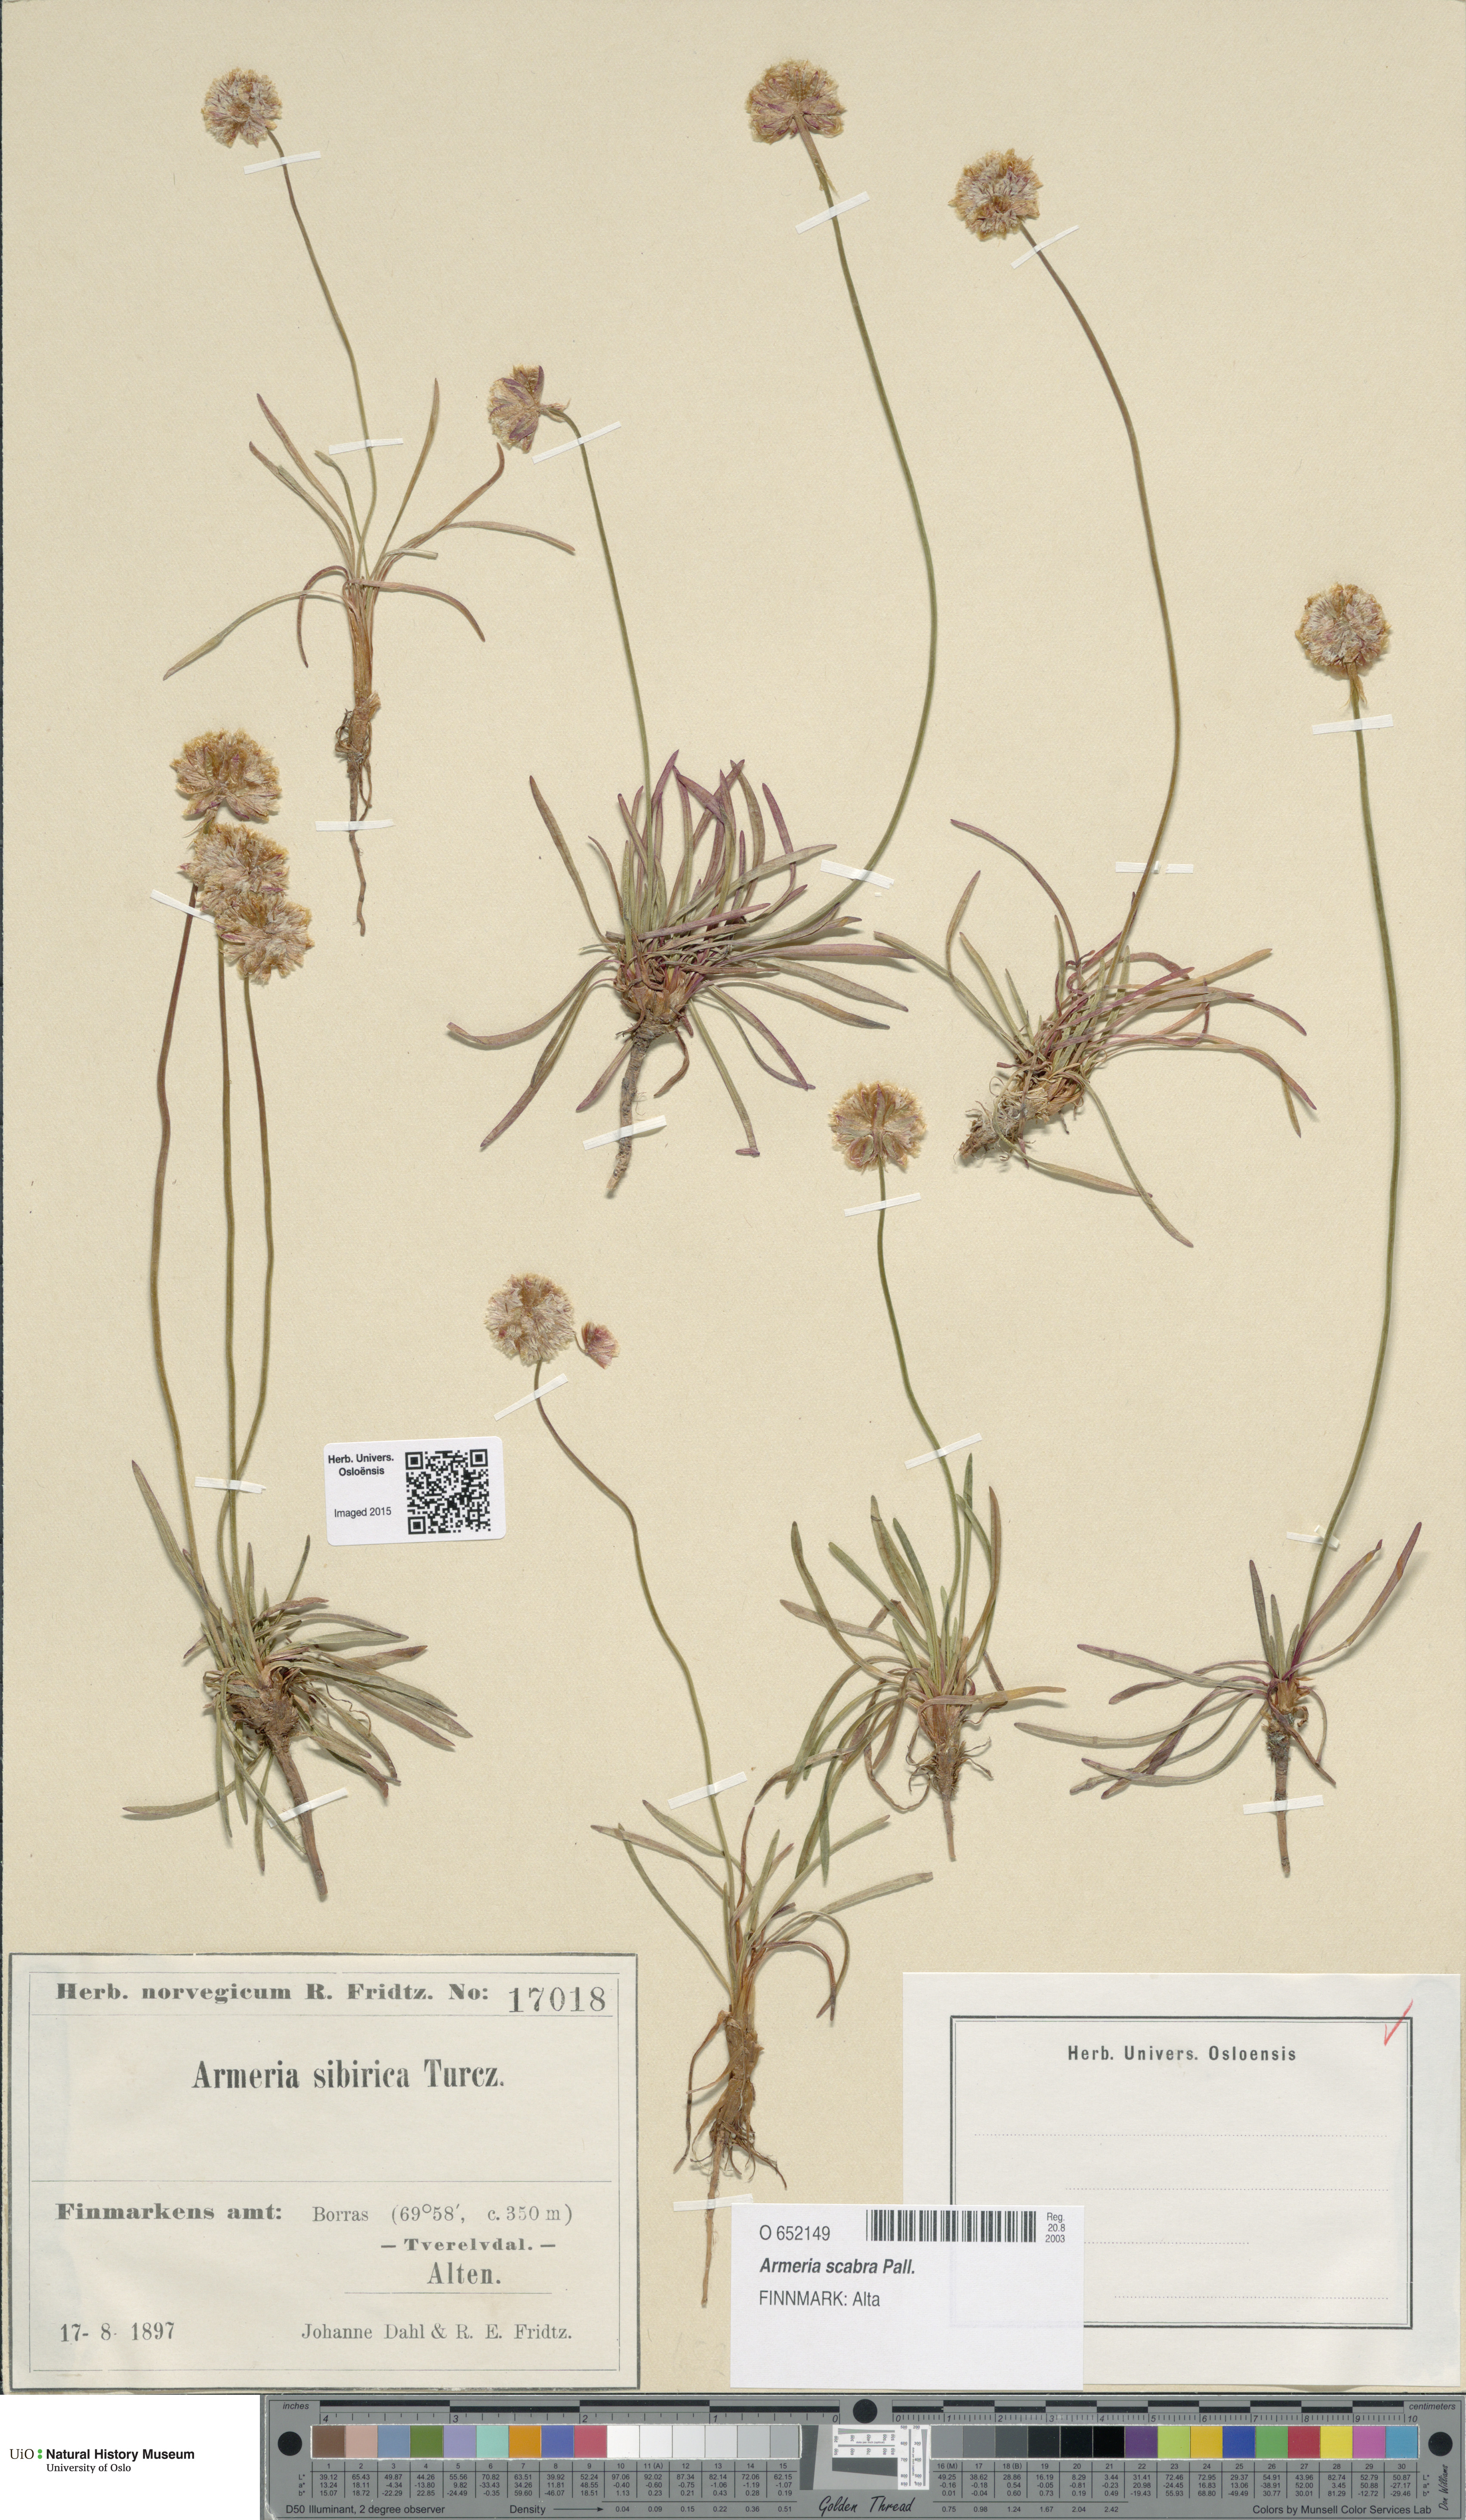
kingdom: Plantae
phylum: Tracheophyta
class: Magnoliopsida
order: Caryophyllales
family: Plumbaginaceae
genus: Armeria
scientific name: Armeria maritima
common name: Thrift
